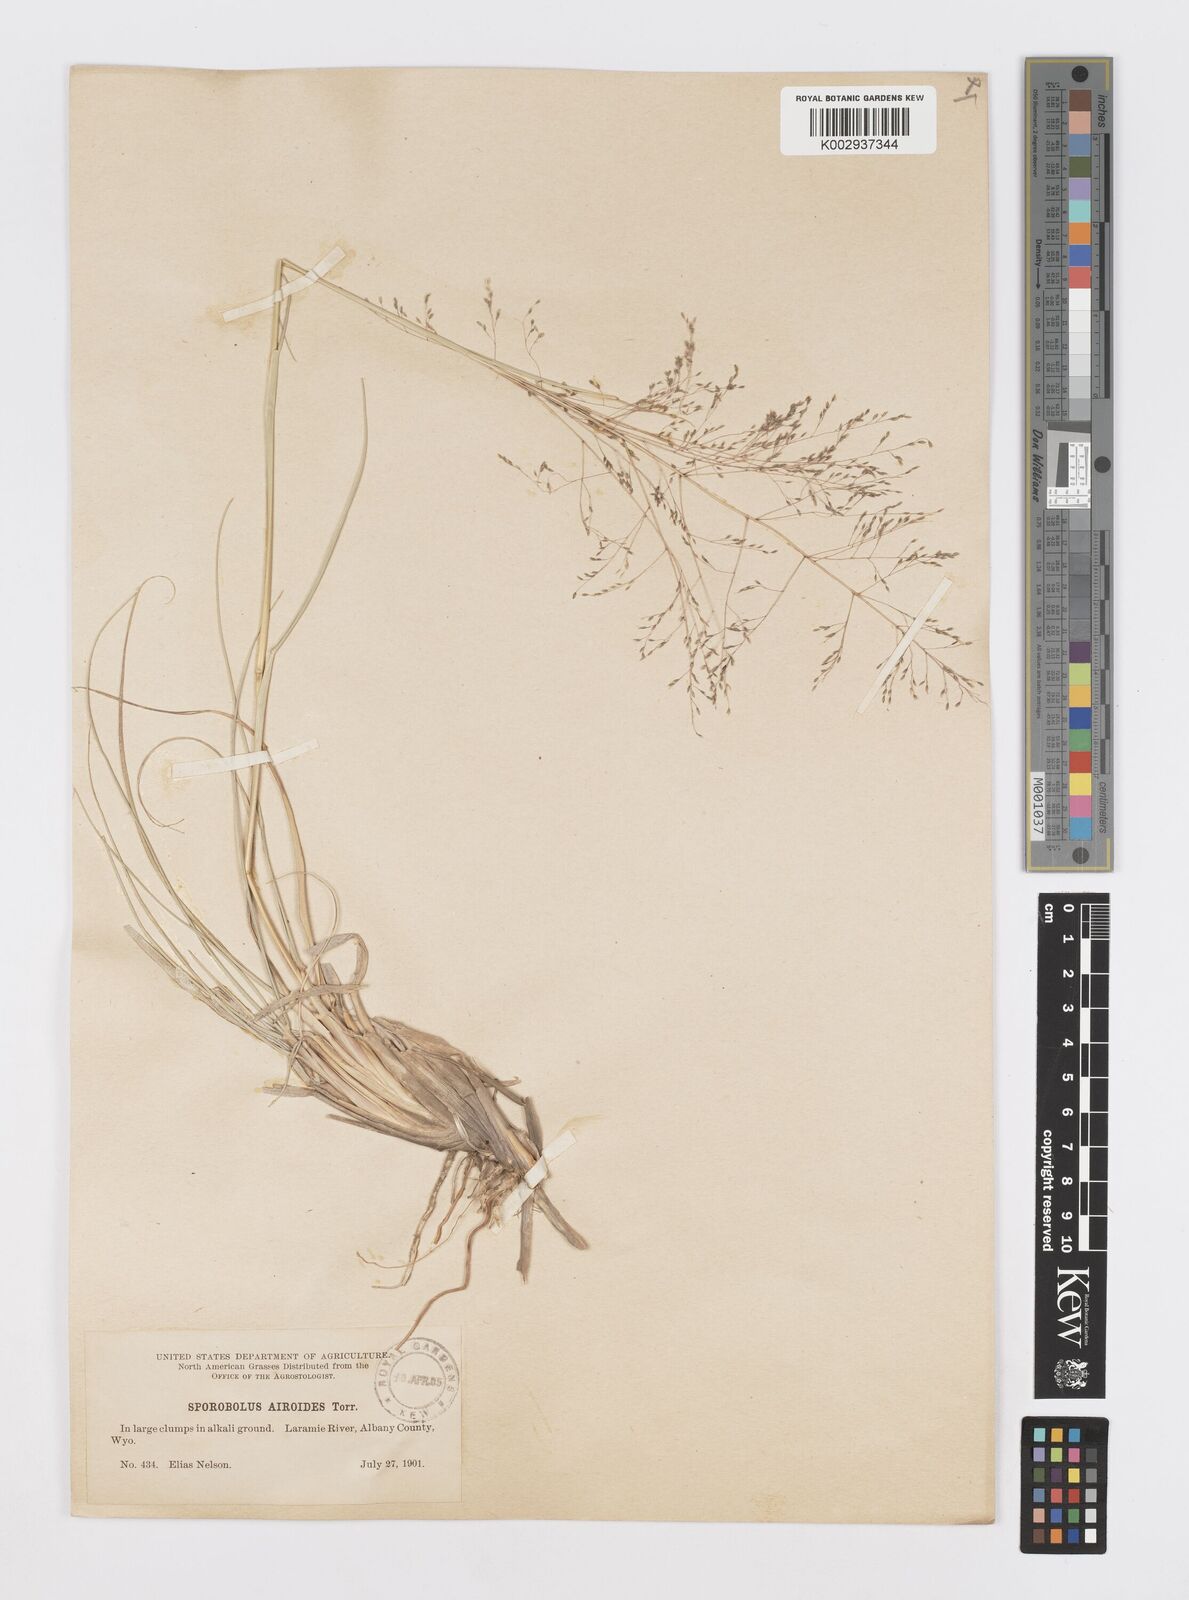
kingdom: Plantae
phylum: Tracheophyta
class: Liliopsida
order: Poales
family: Poaceae
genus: Sporobolus
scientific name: Sporobolus airoides
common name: Alkali sacaton
